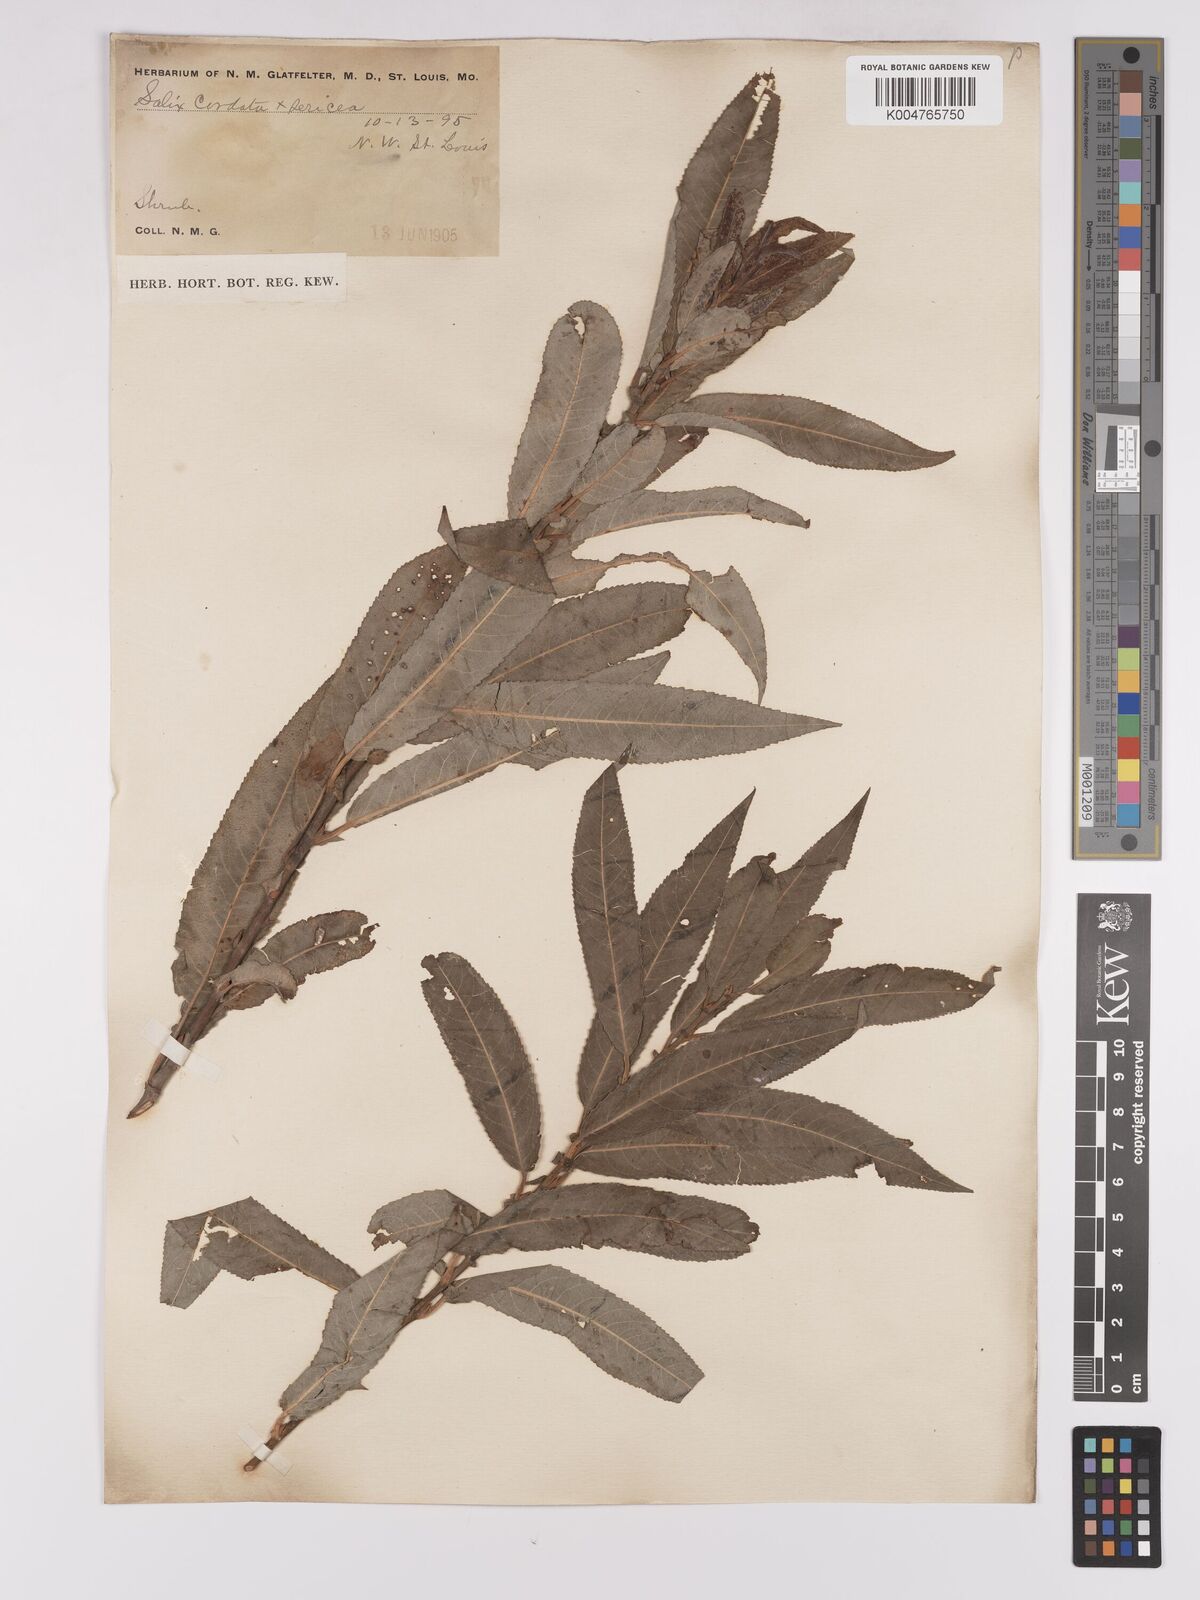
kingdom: Plantae
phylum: Tracheophyta
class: Magnoliopsida
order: Malpighiales
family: Salicaceae
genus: Salix
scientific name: Salix cordata
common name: Heart-leaf willow
